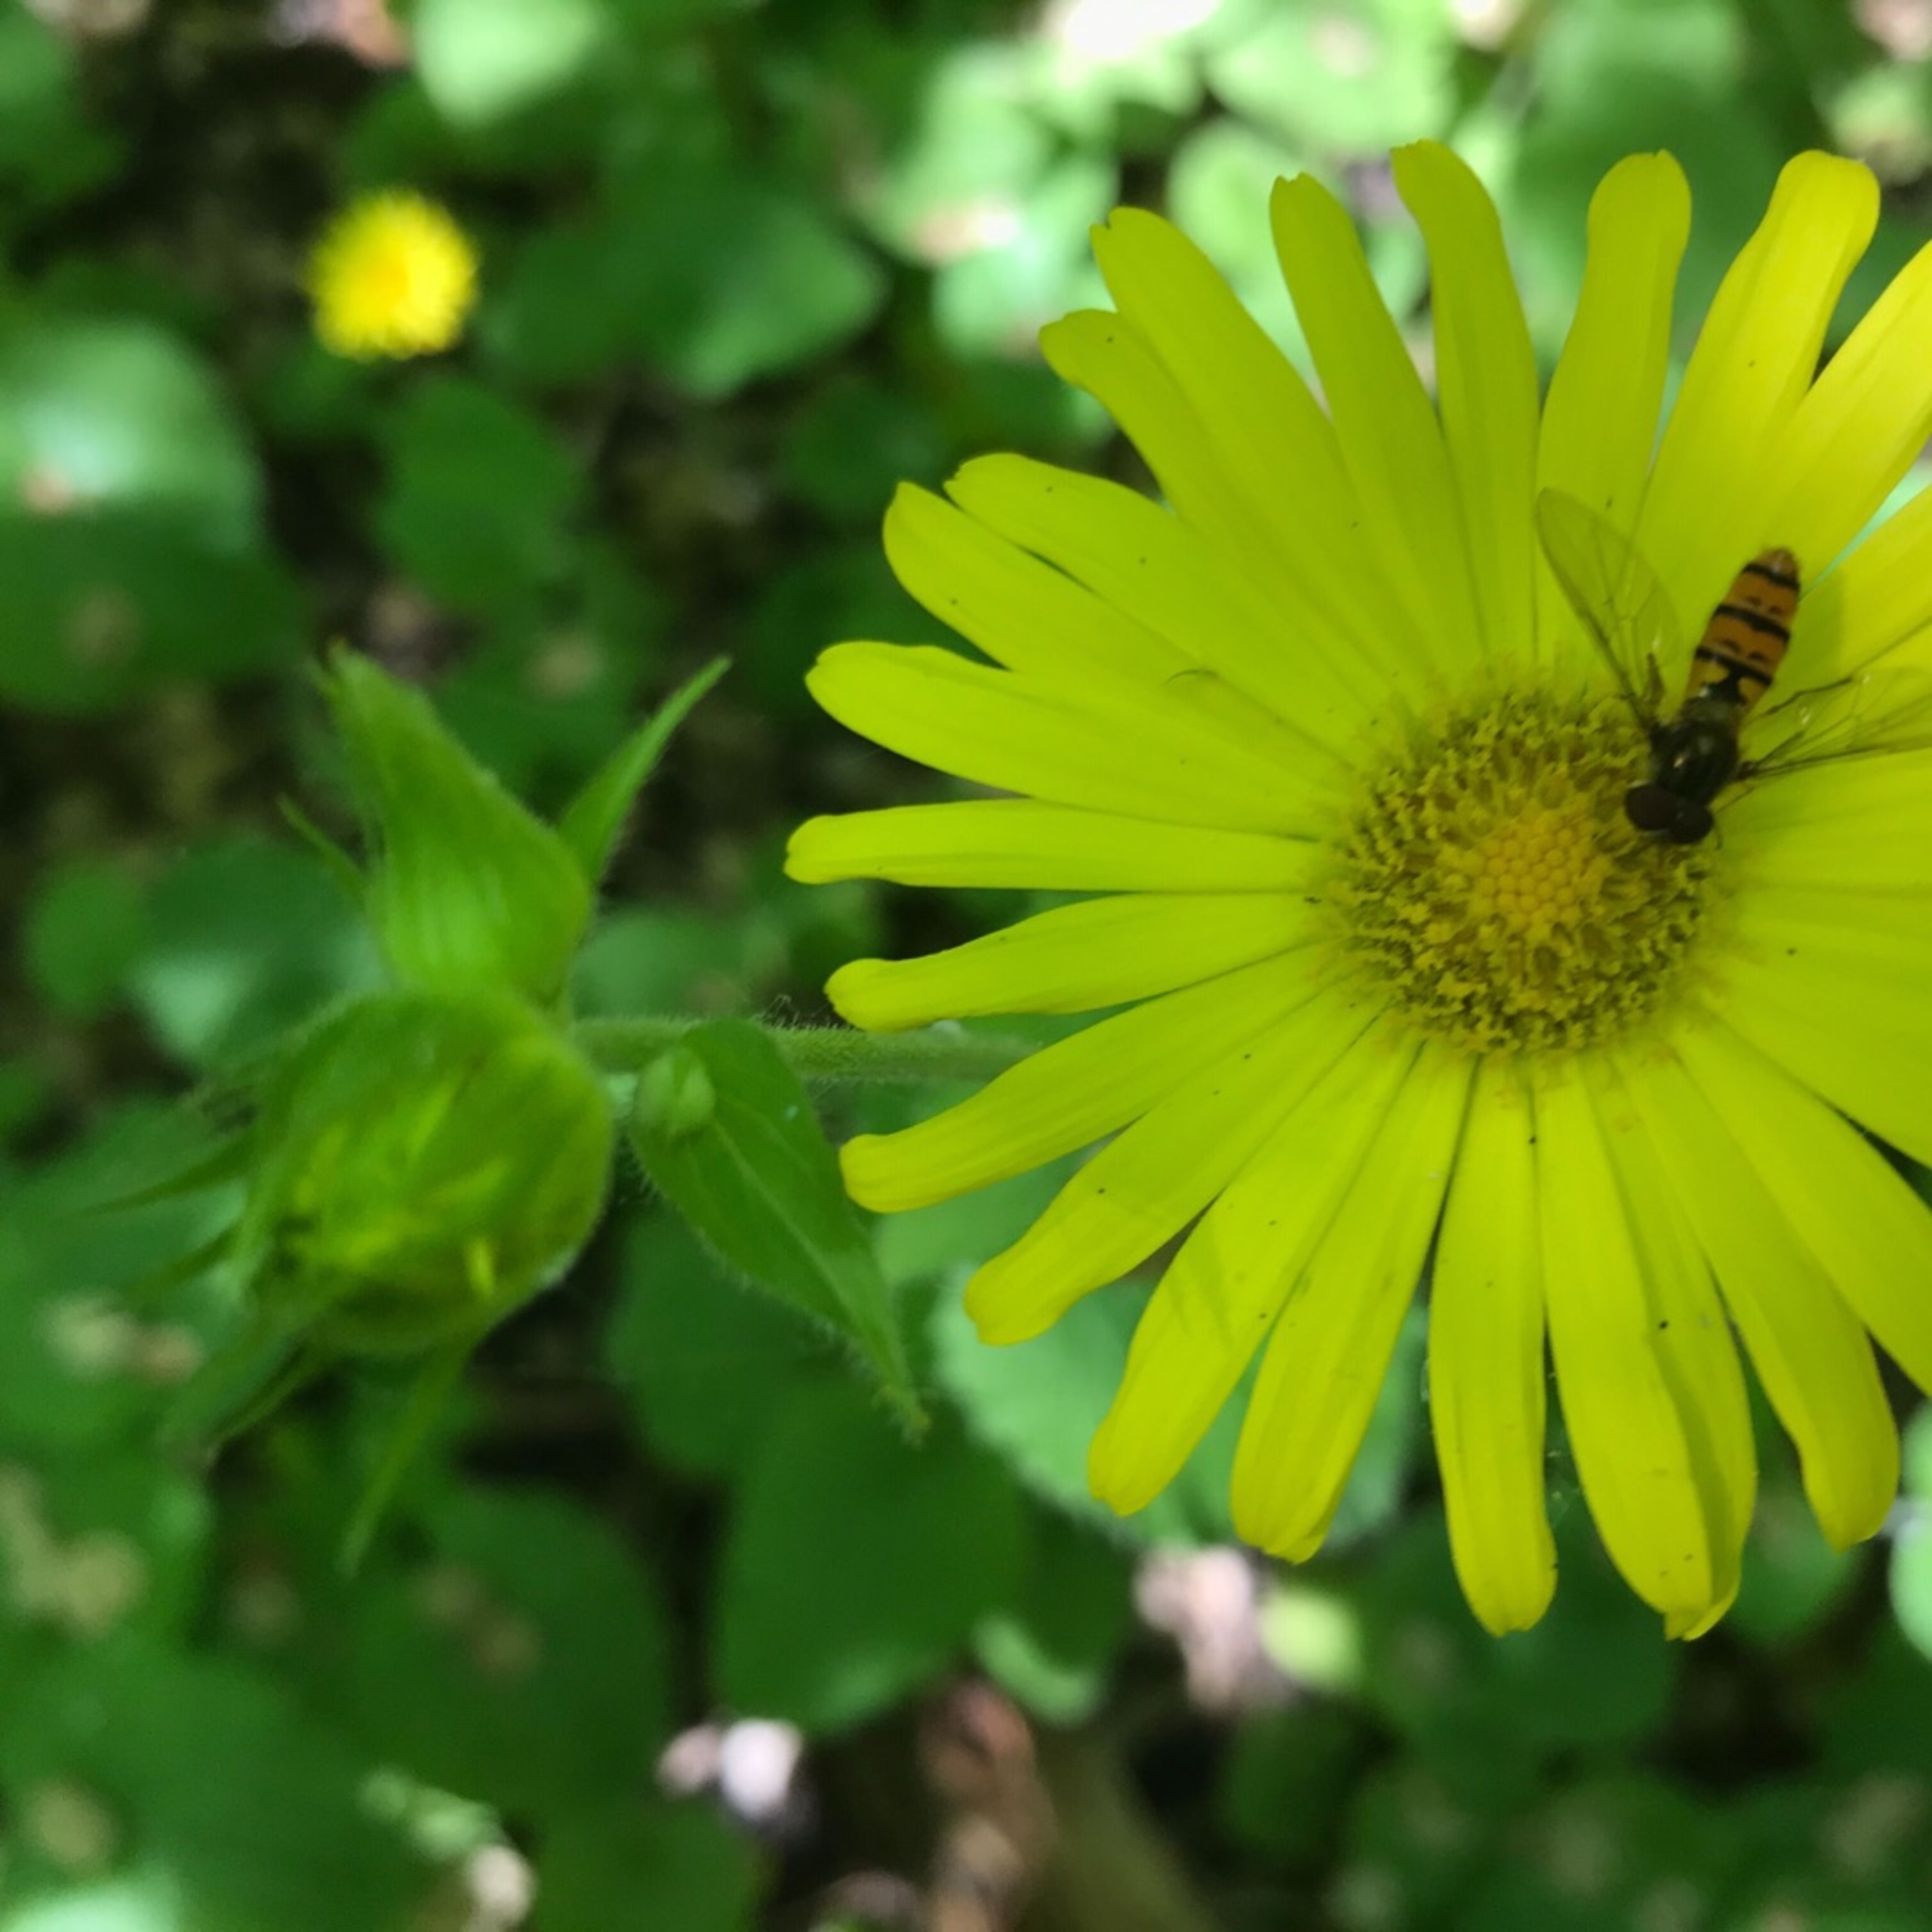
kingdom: Animalia
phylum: Arthropoda
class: Insecta
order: Diptera
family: Syrphidae
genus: Episyrphus
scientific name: Episyrphus balteatus
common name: Dobbeltbåndet svirreflue
